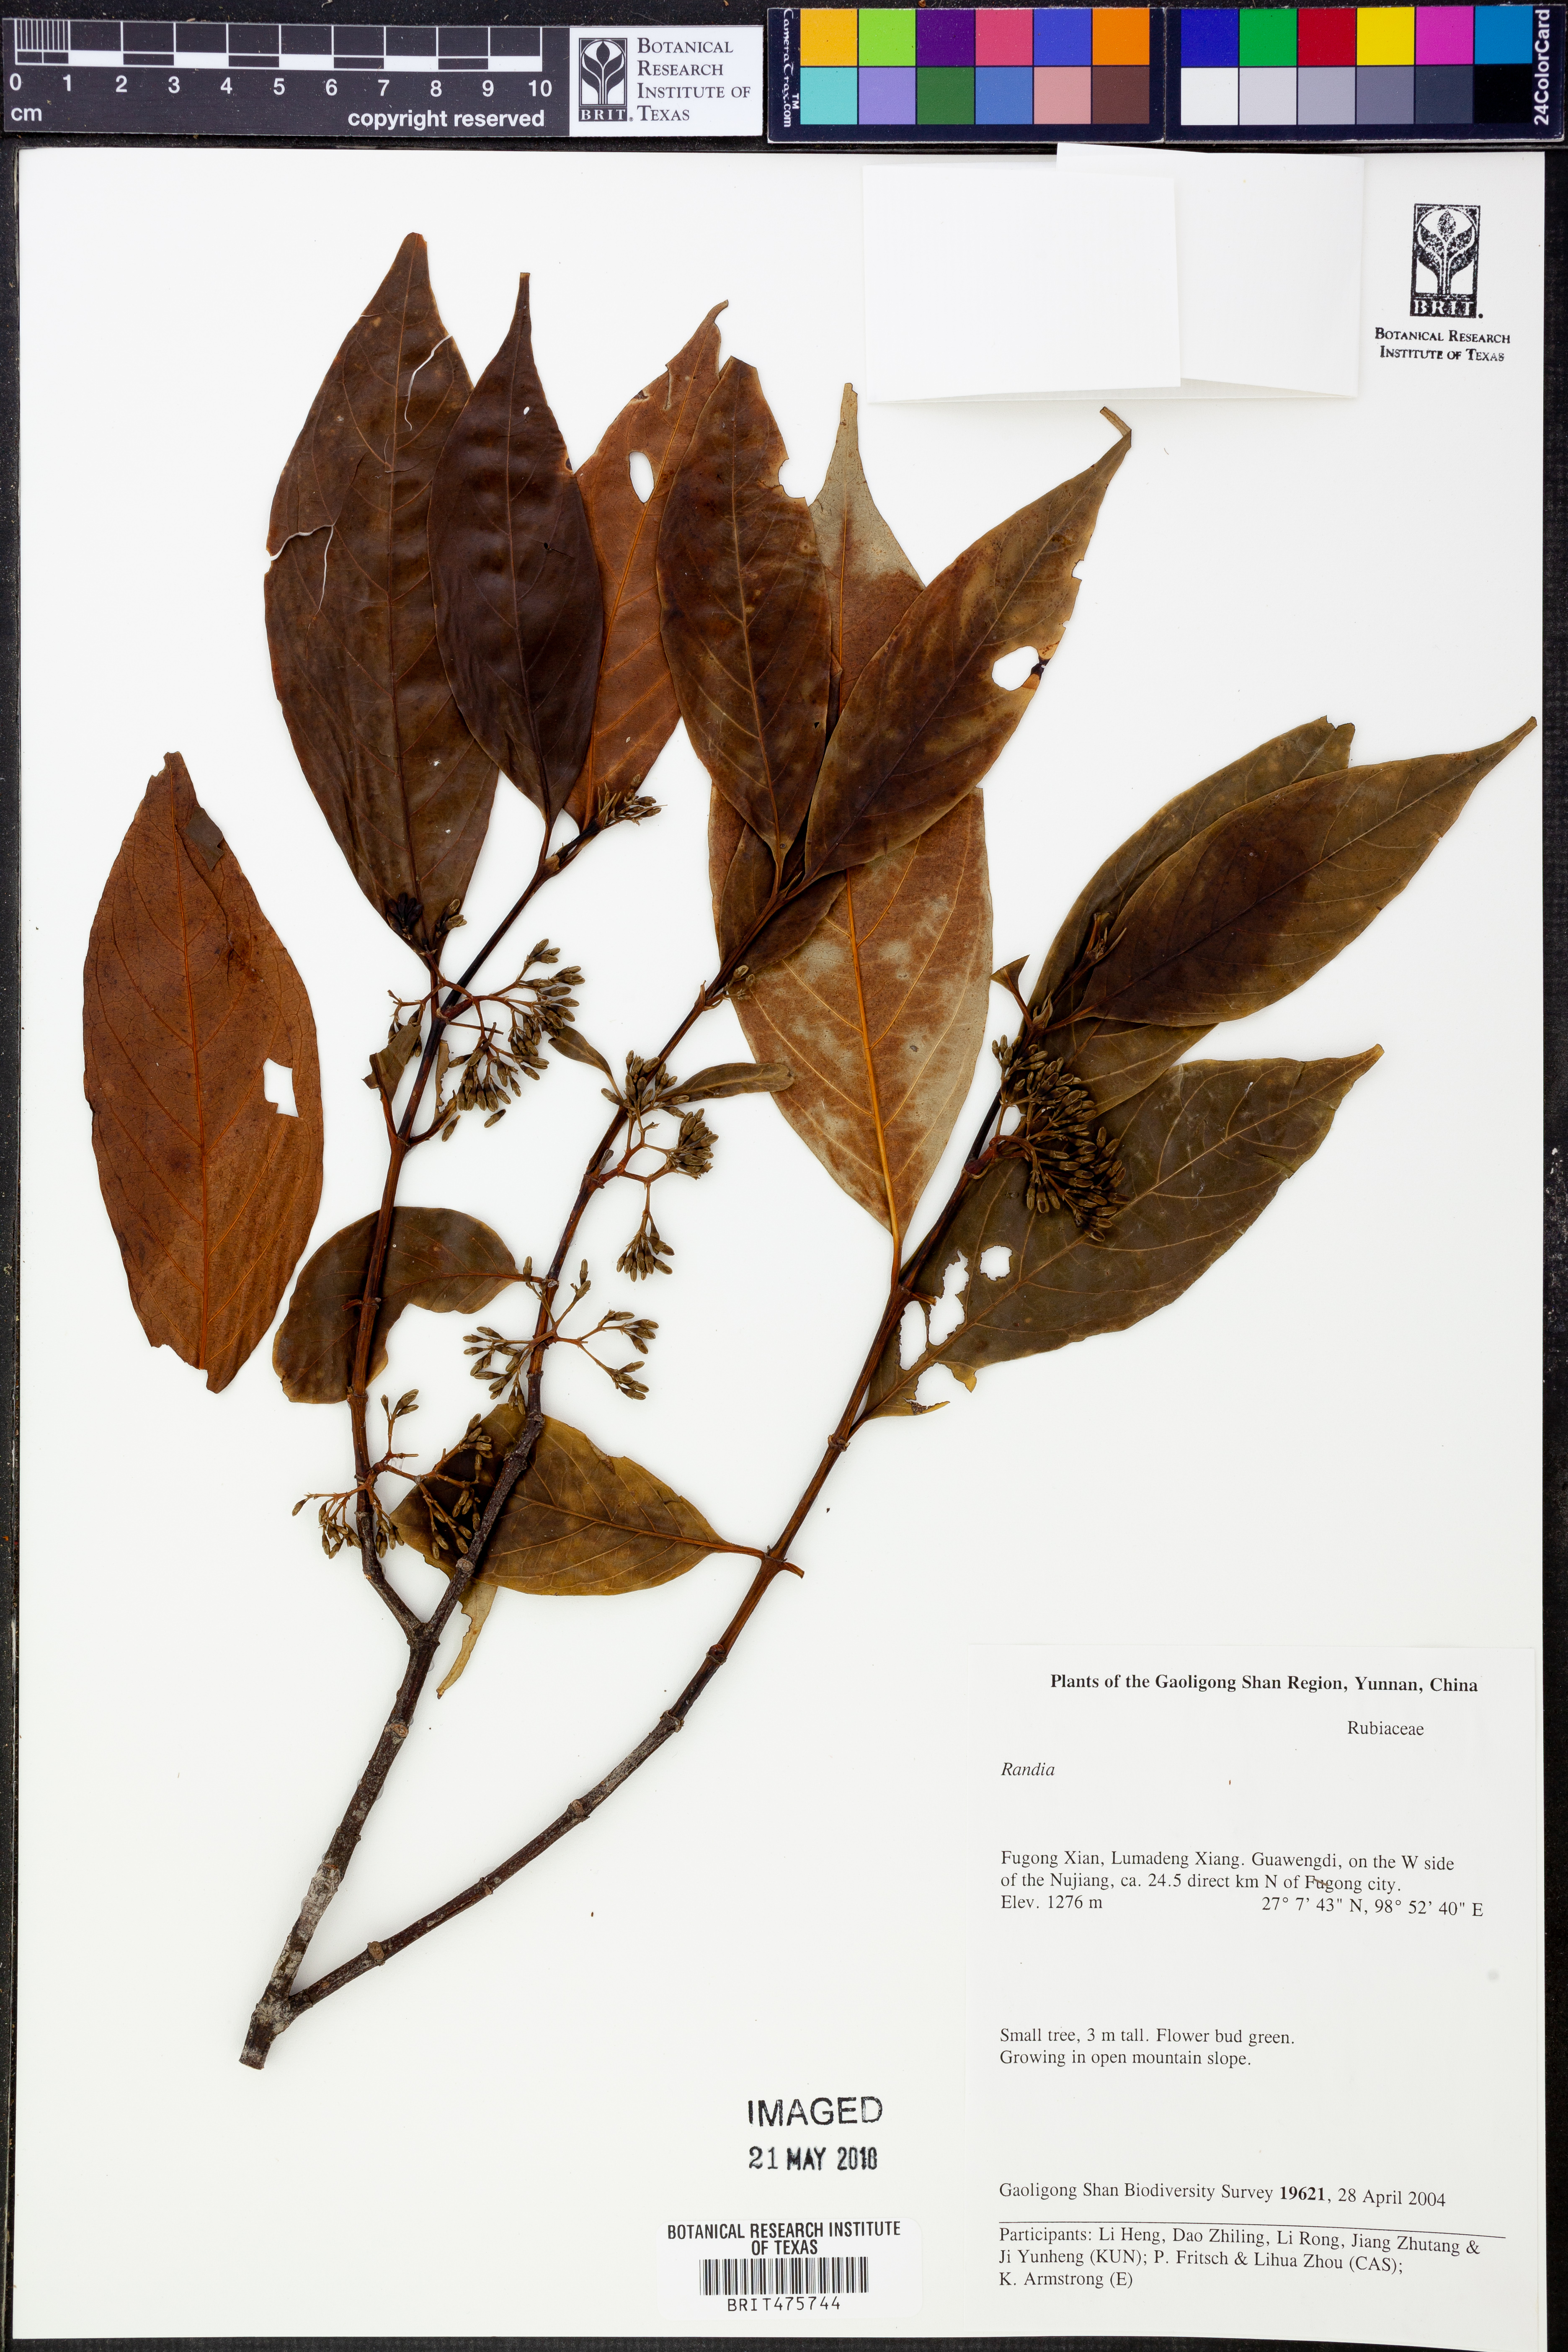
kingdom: Plantae
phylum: Tracheophyta
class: Magnoliopsida
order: Gentianales
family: Rubiaceae
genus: Randia
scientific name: Randia
